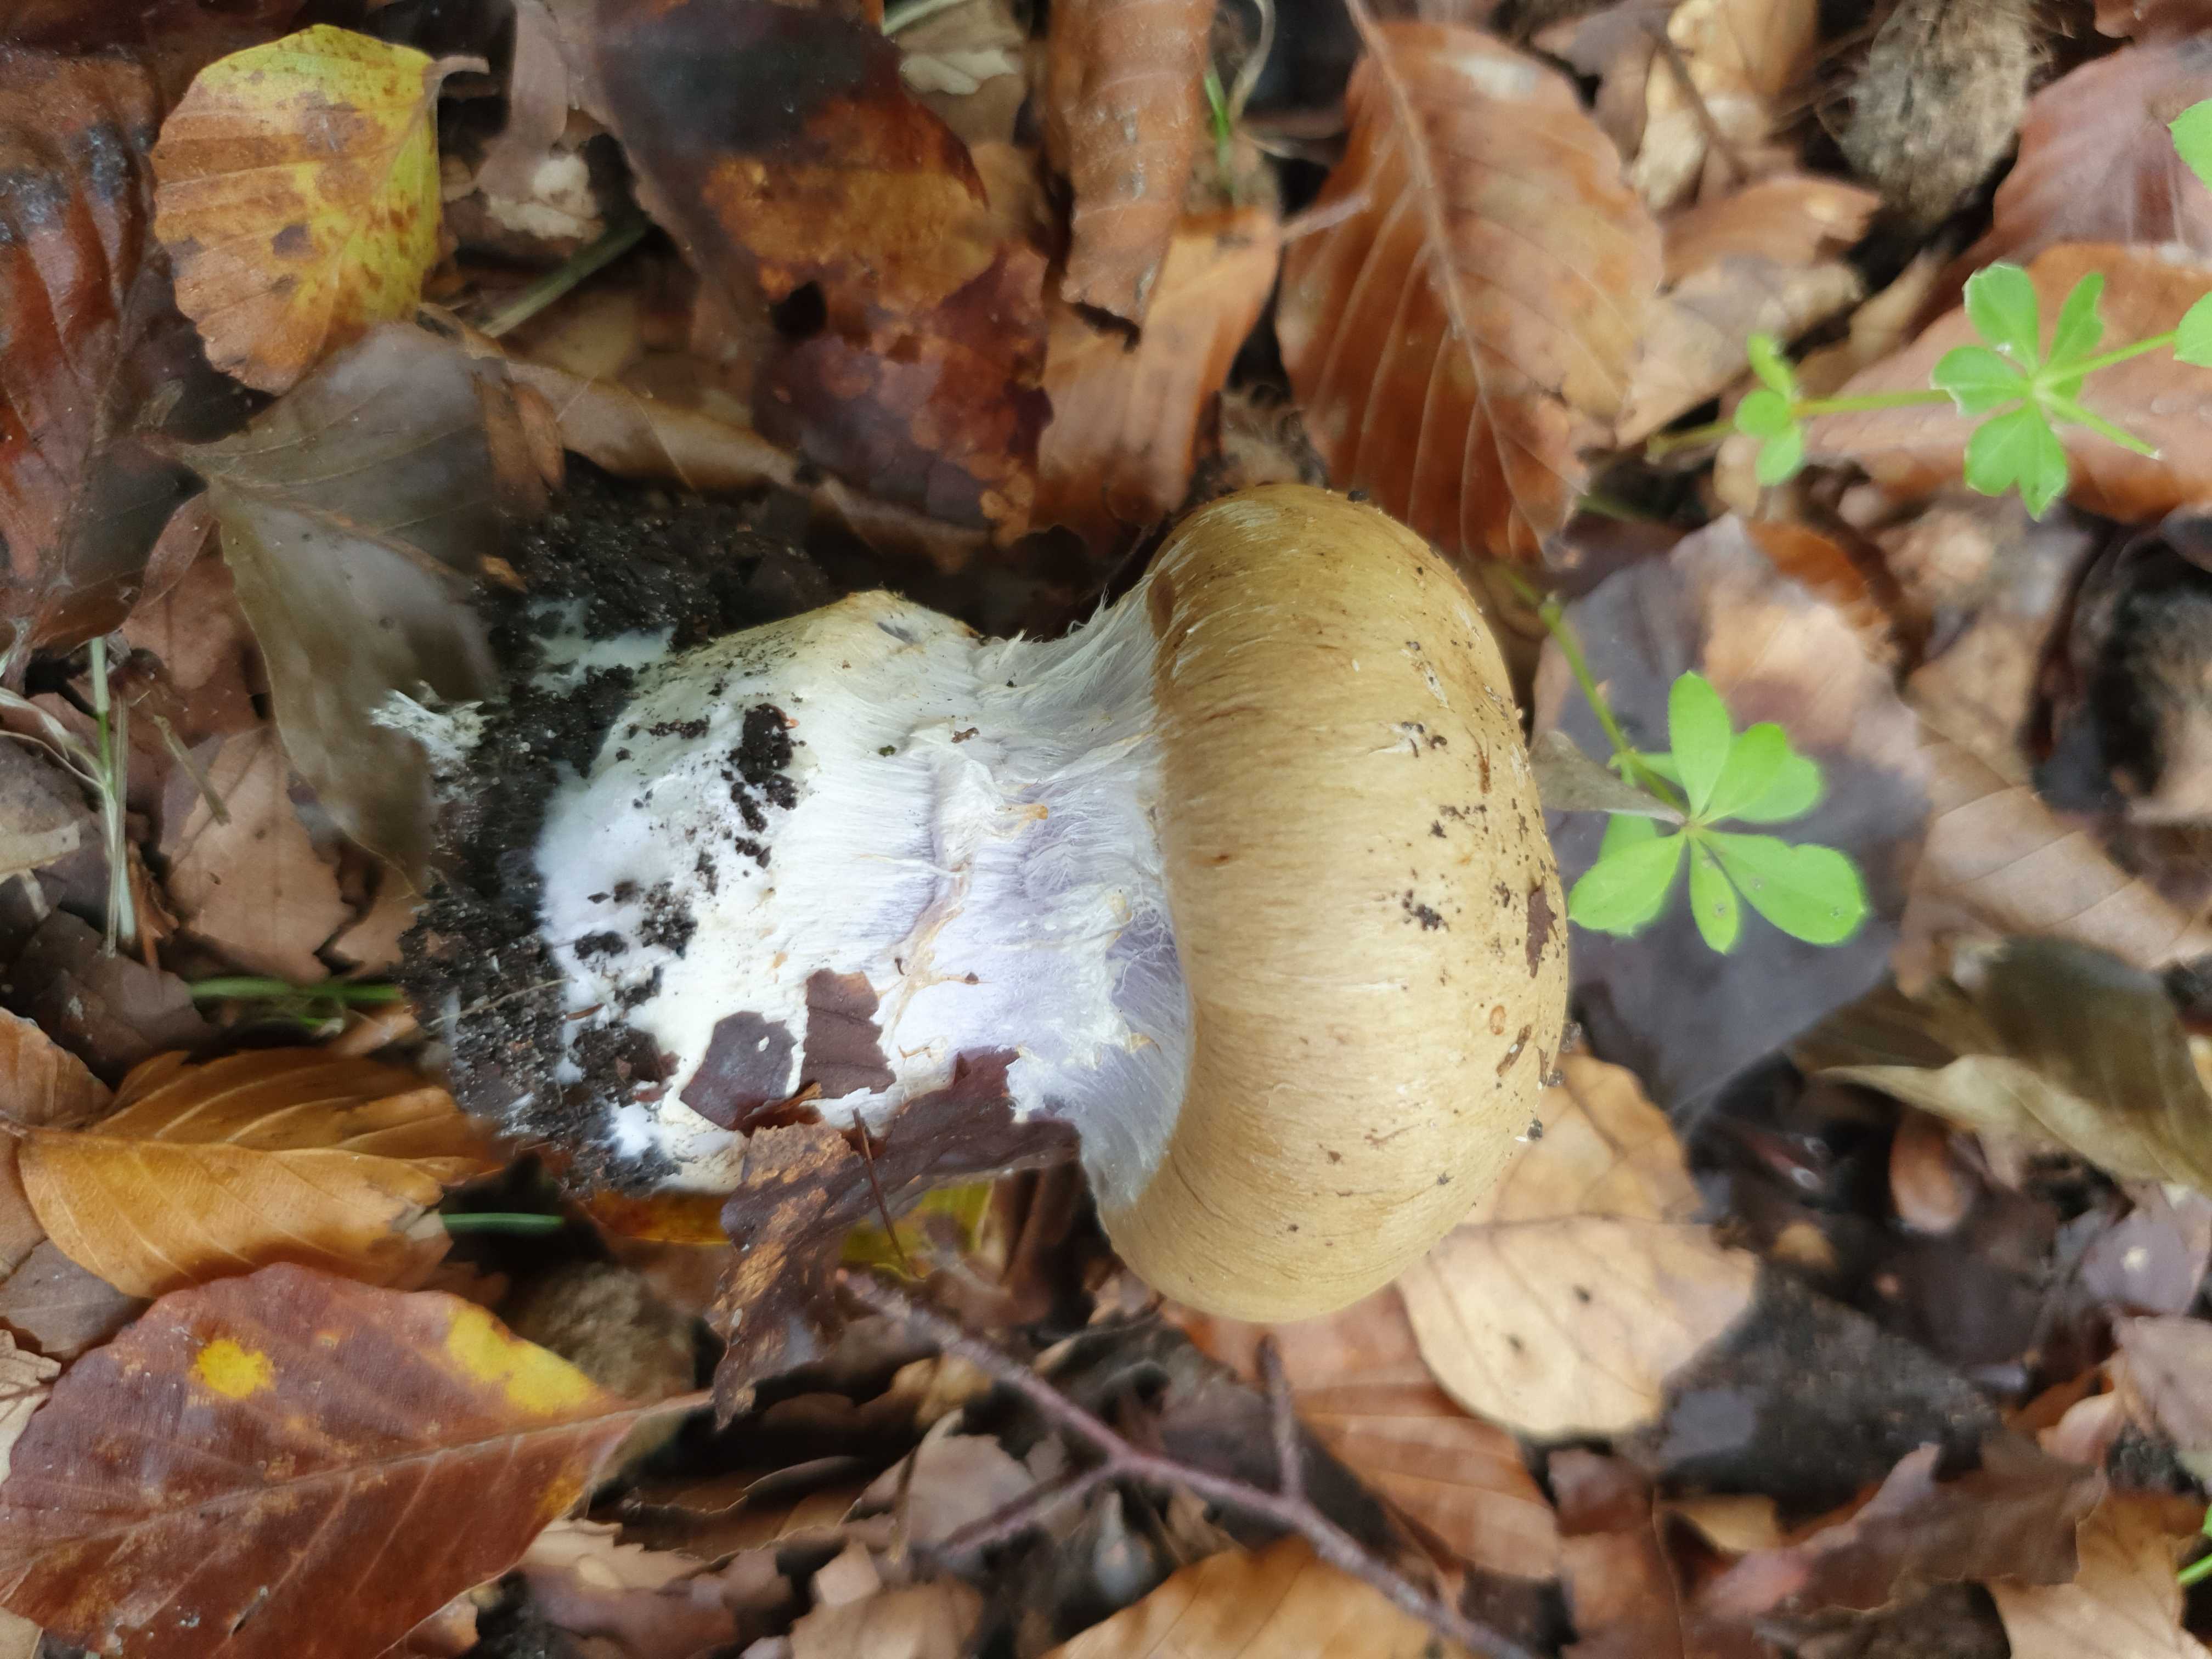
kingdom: Fungi
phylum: Basidiomycota
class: Agaricomycetes
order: Agaricales
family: Cortinariaceae
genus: Cortinarius
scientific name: Cortinarius anserinus
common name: bøge-slørhat
